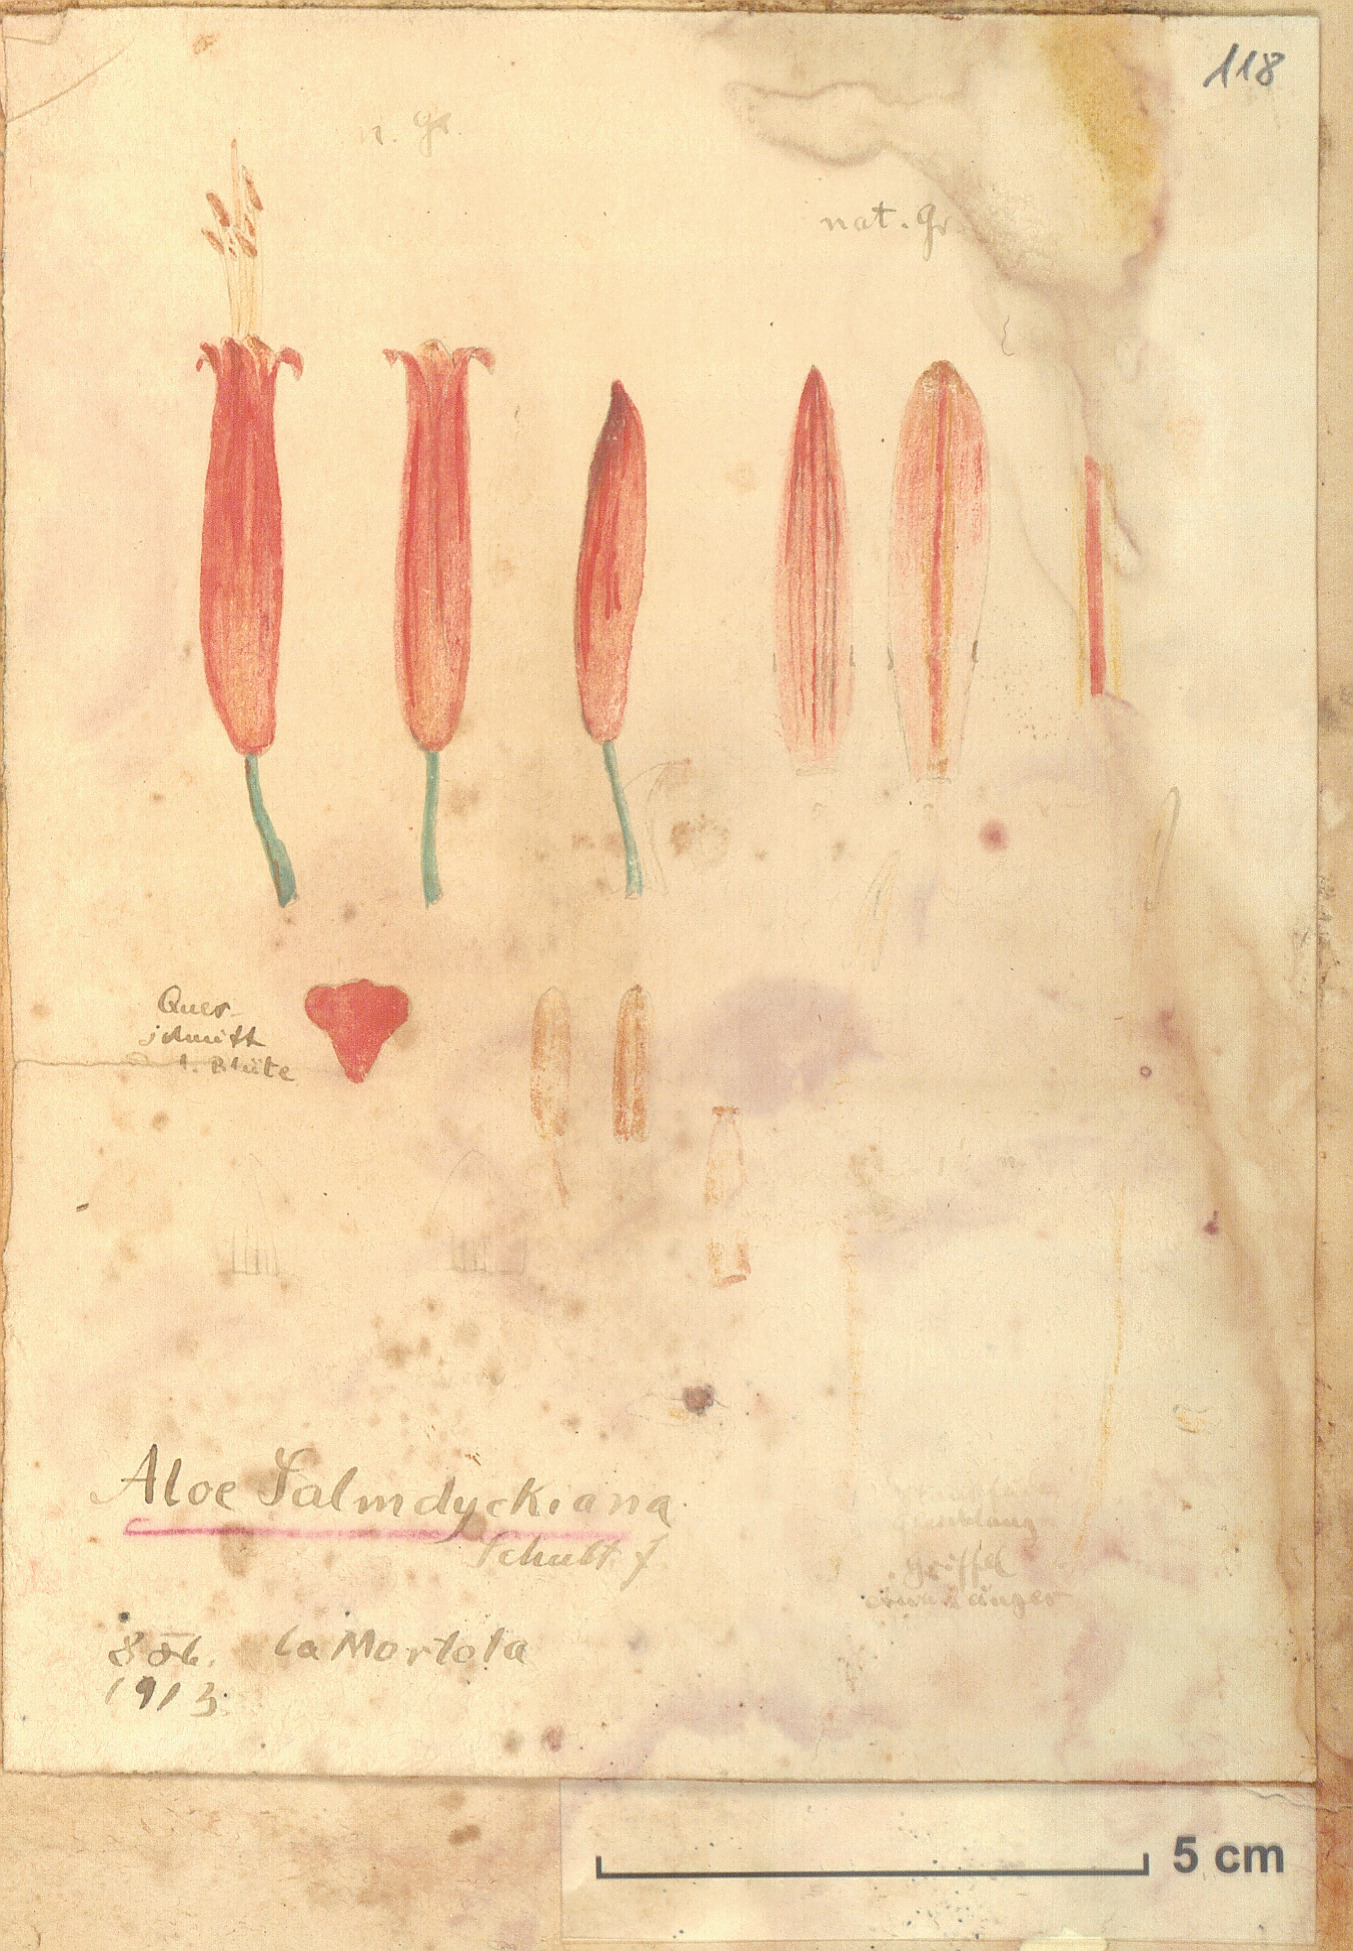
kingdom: Plantae
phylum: Tracheophyta
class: Liliopsida
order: Asparagales
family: Asphodelaceae
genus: Aloe
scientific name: Aloe arborescens
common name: Candelabra aloe
